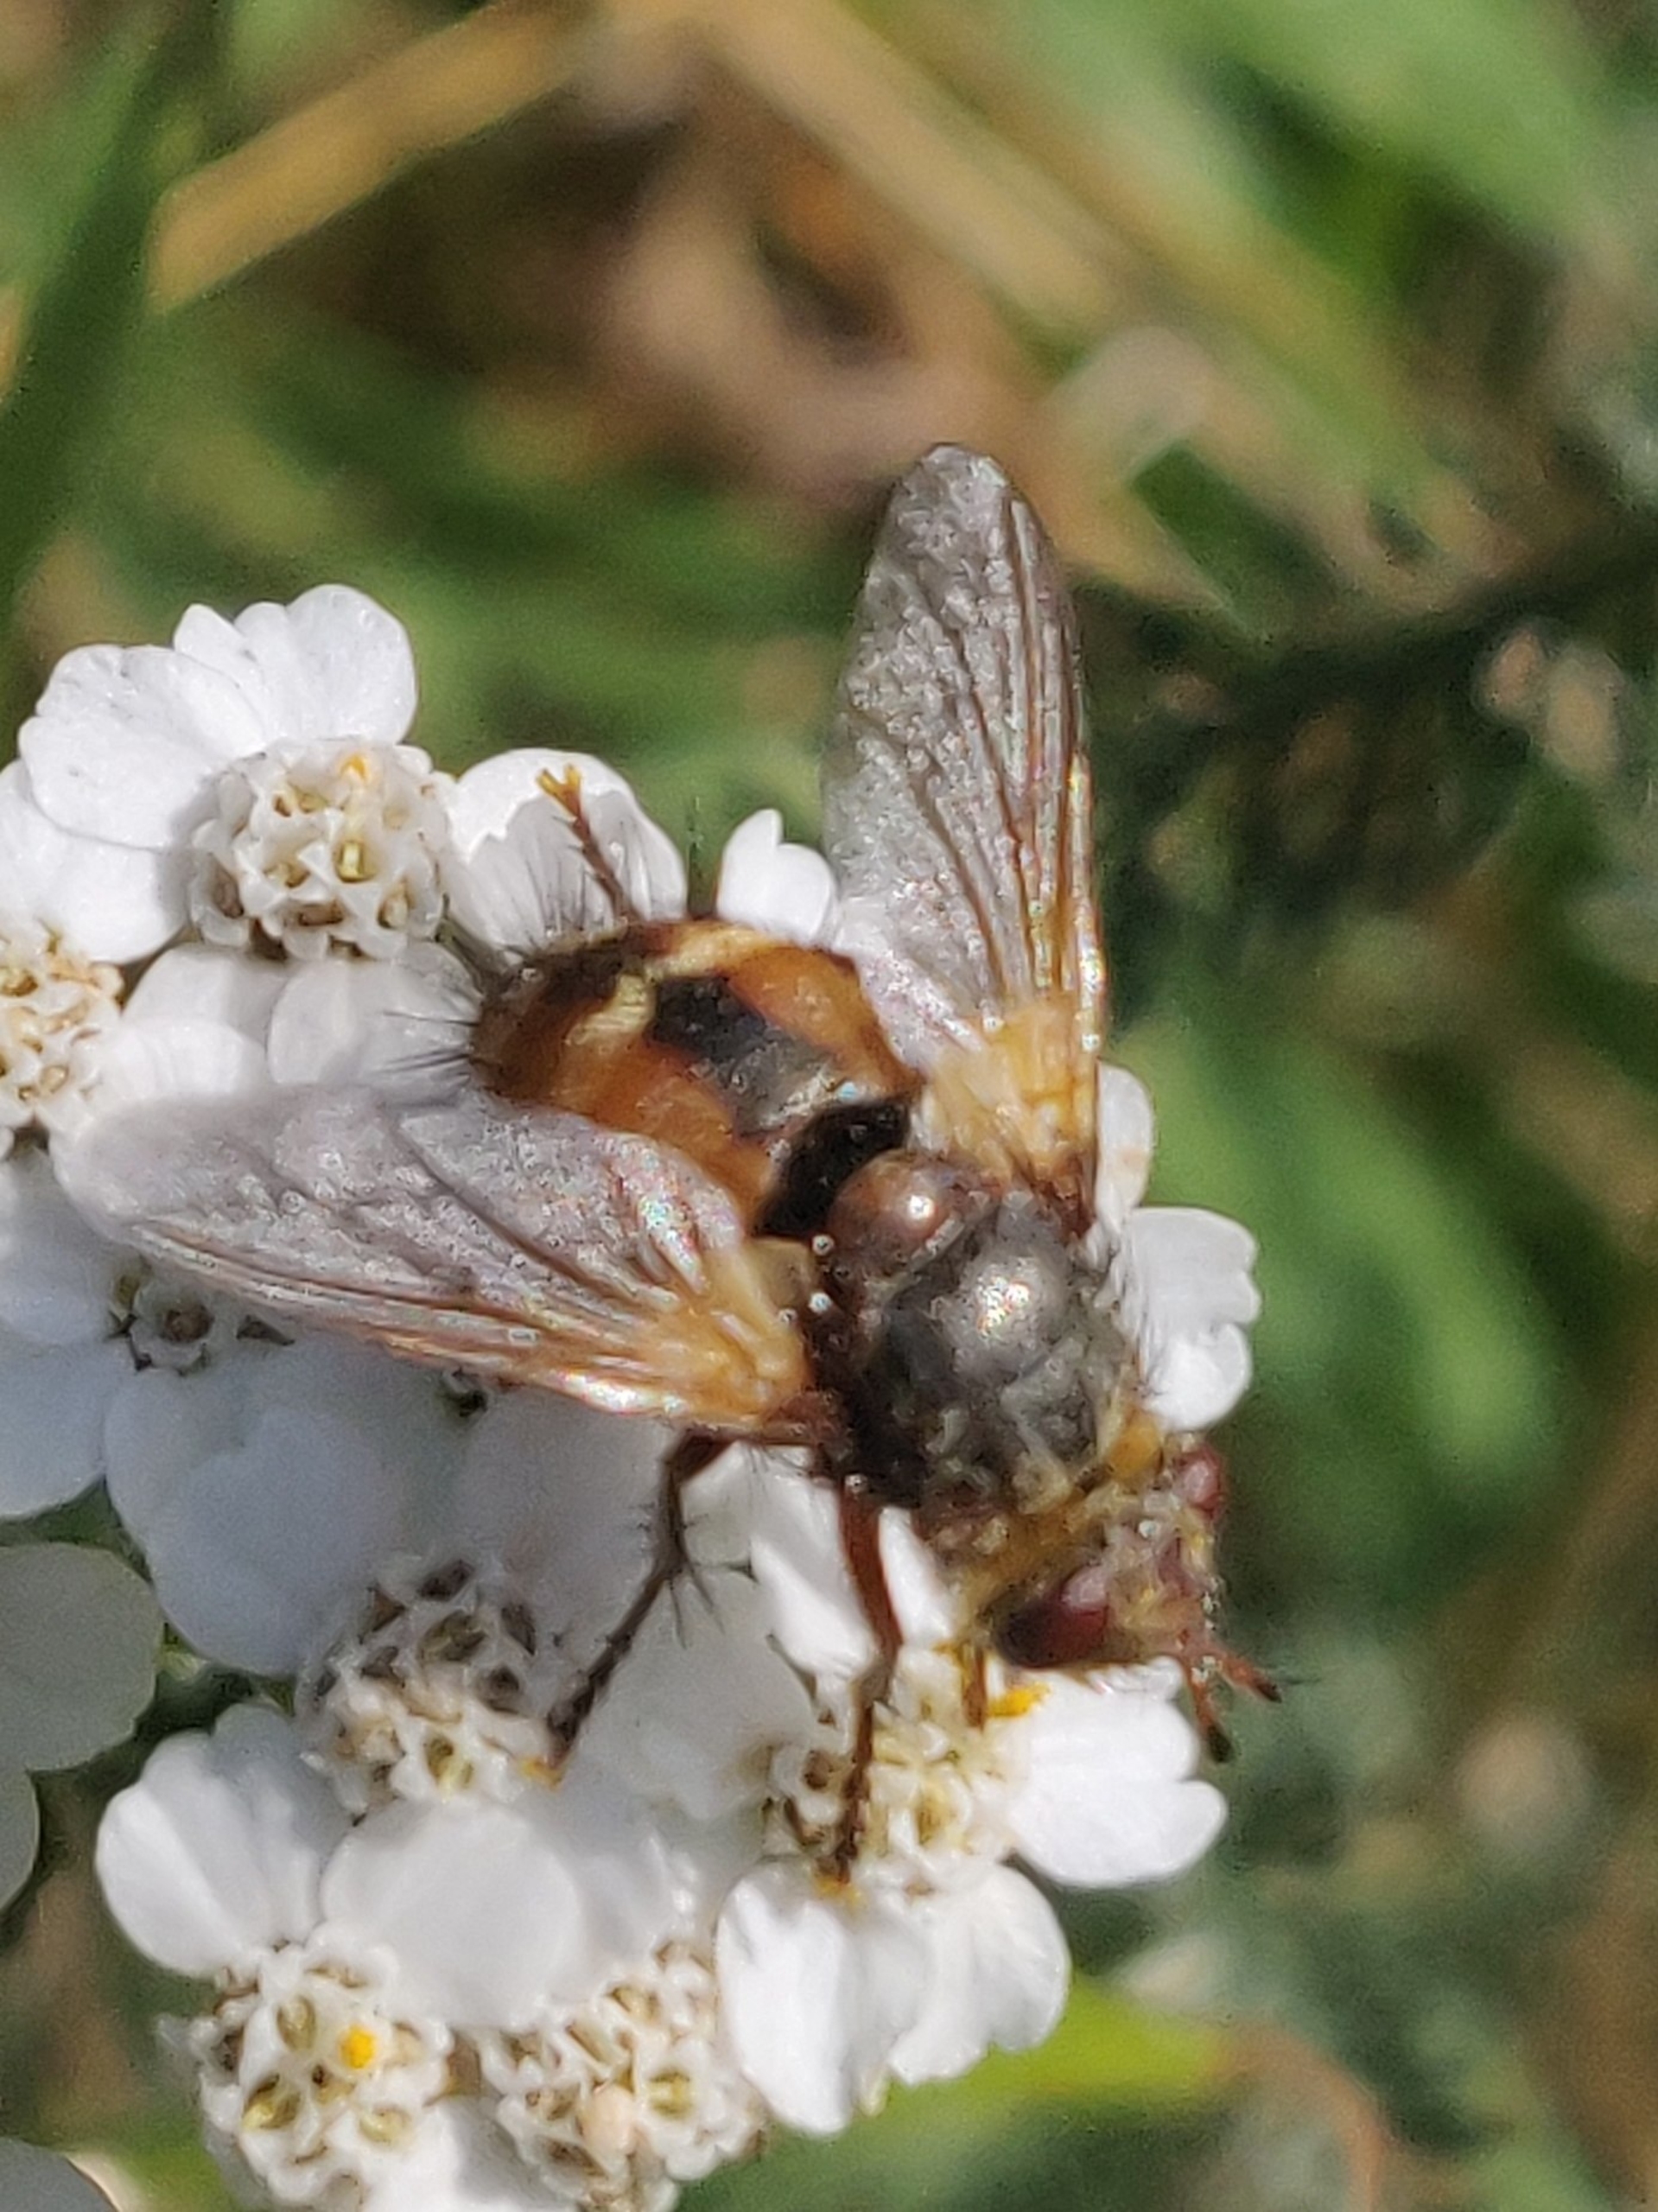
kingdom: Animalia
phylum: Arthropoda
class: Insecta
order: Diptera
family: Tachinidae
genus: Tachina
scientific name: Tachina fera
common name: Mellemfluen oskar
